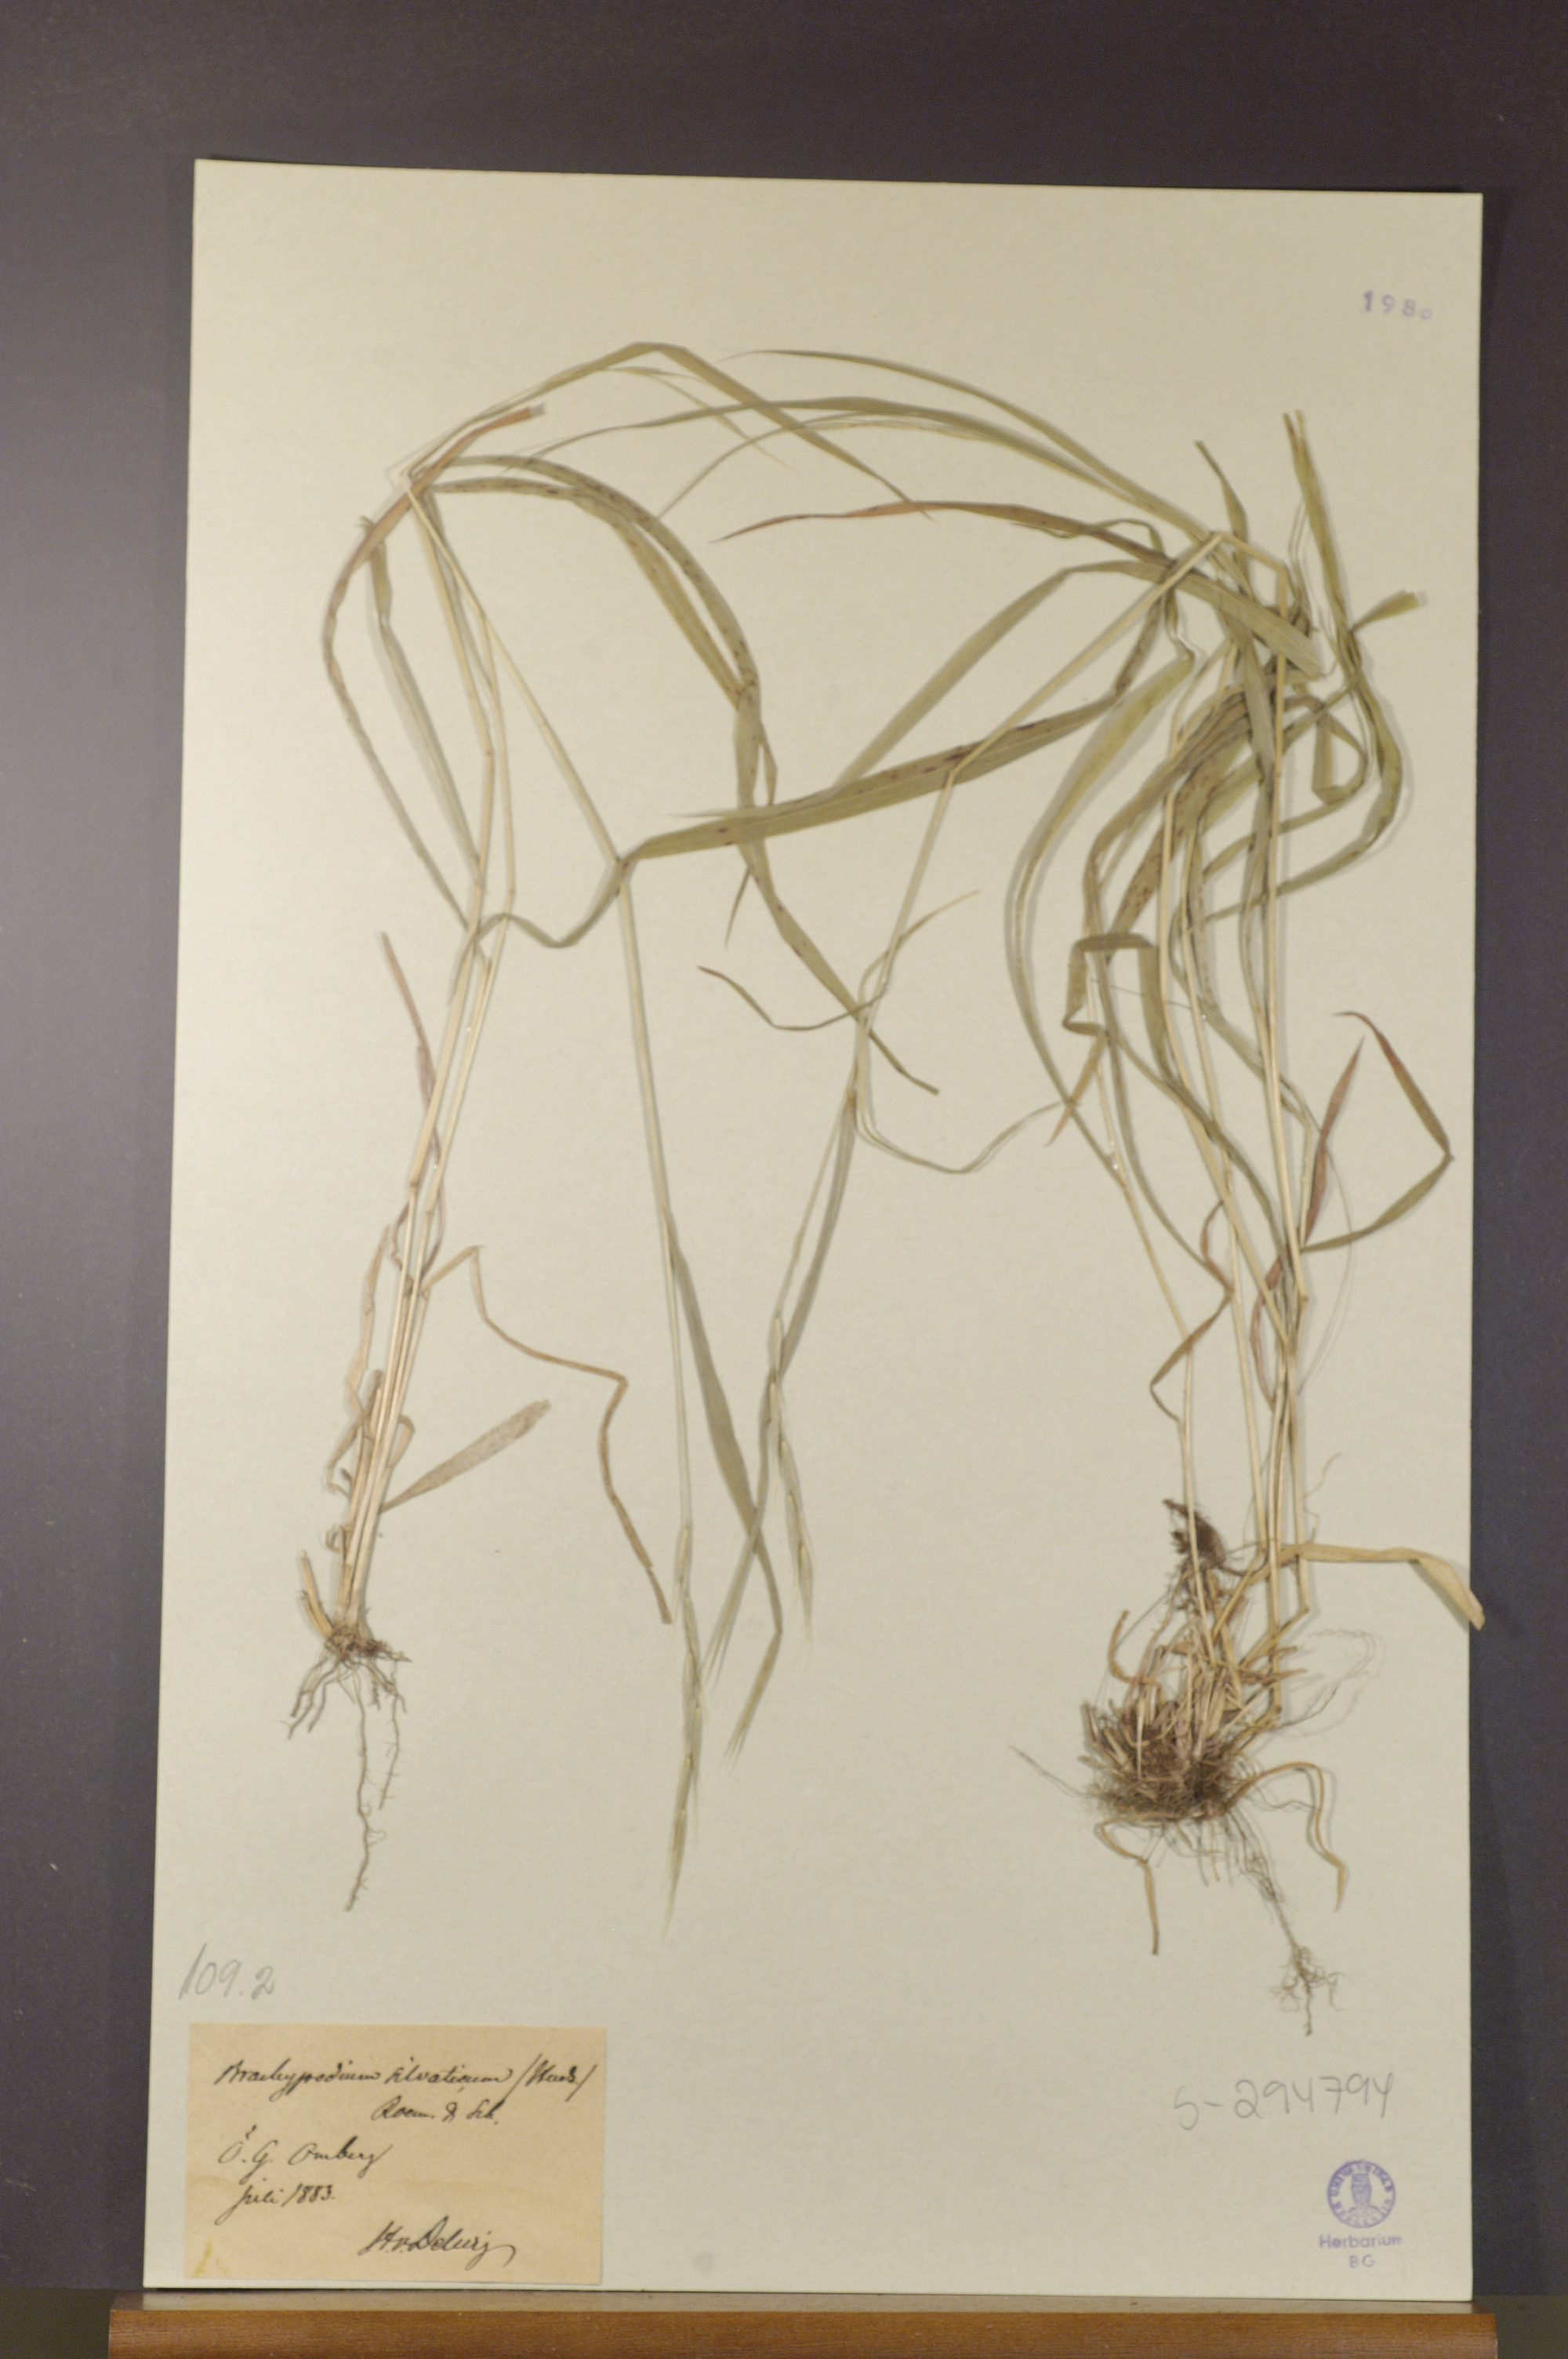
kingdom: Plantae
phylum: Tracheophyta
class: Liliopsida
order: Poales
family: Poaceae
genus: Brachypodium
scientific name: Brachypodium sylvaticum
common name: False-brome
